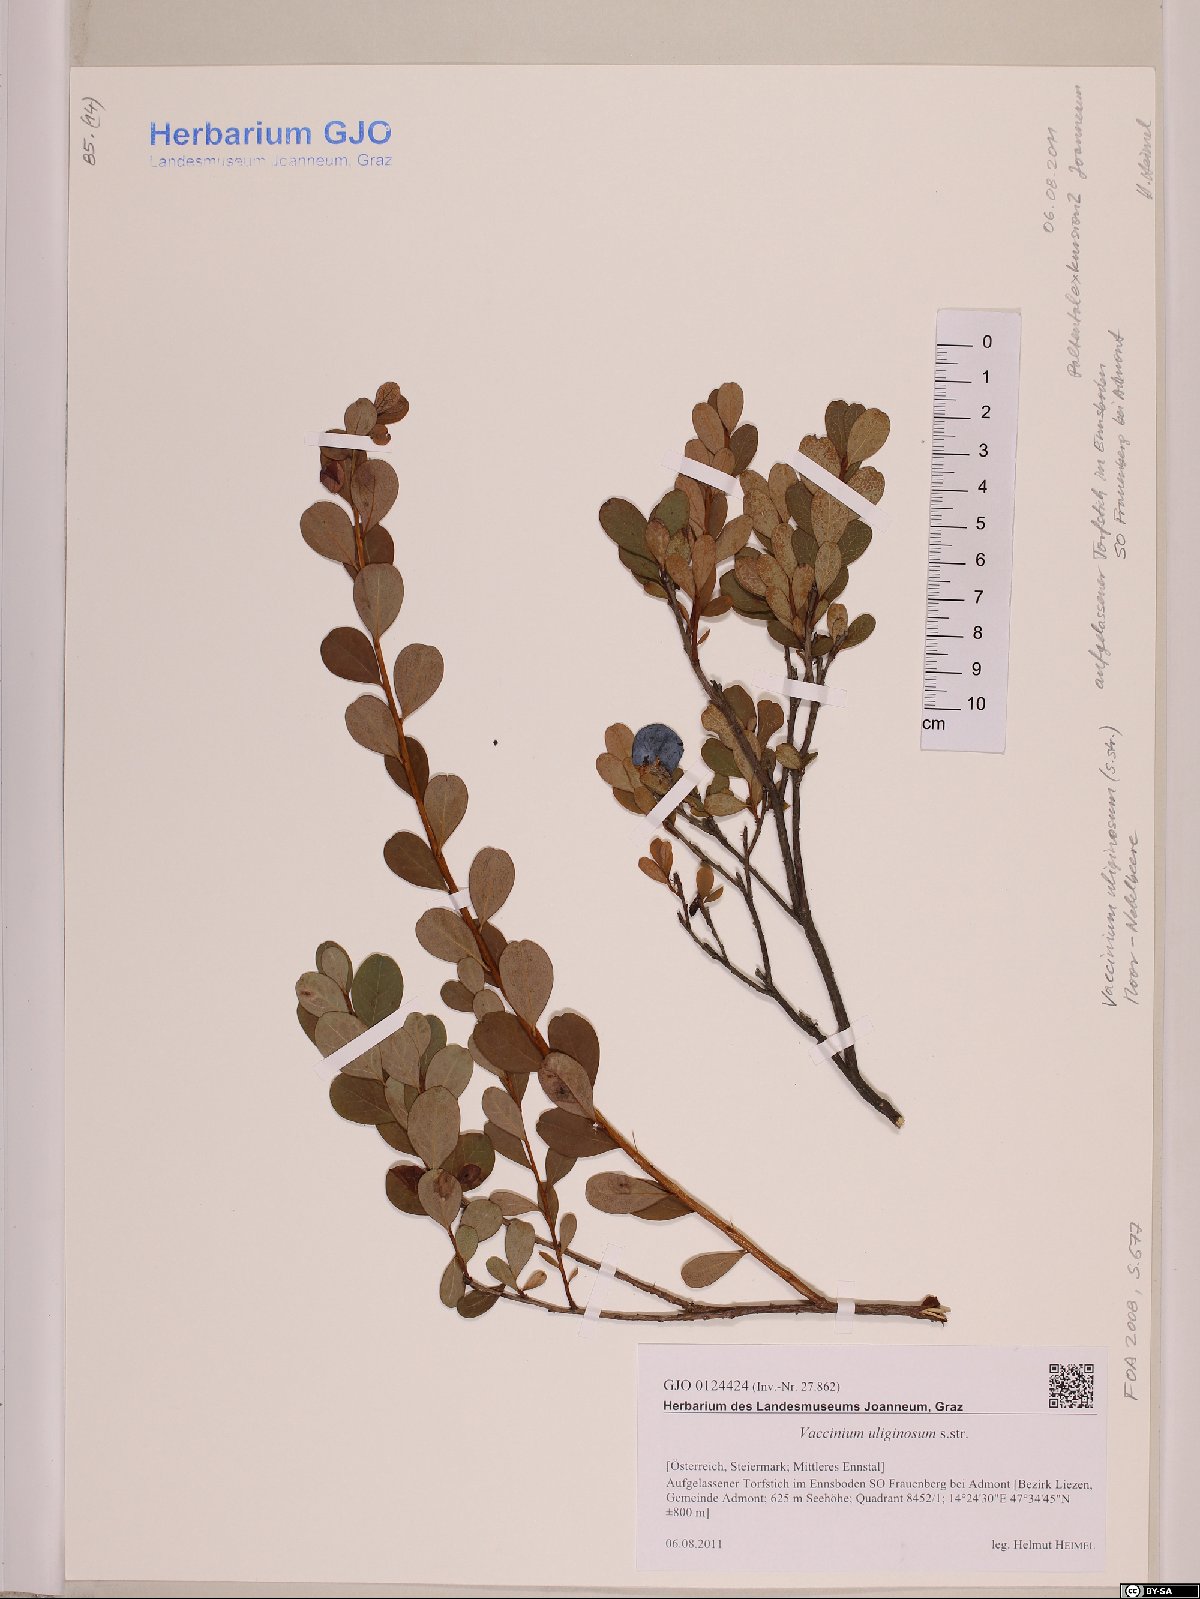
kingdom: Plantae
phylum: Tracheophyta
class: Magnoliopsida
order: Ericales
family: Ericaceae
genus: Vaccinium
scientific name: Vaccinium uliginosum
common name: Bog bilberry
